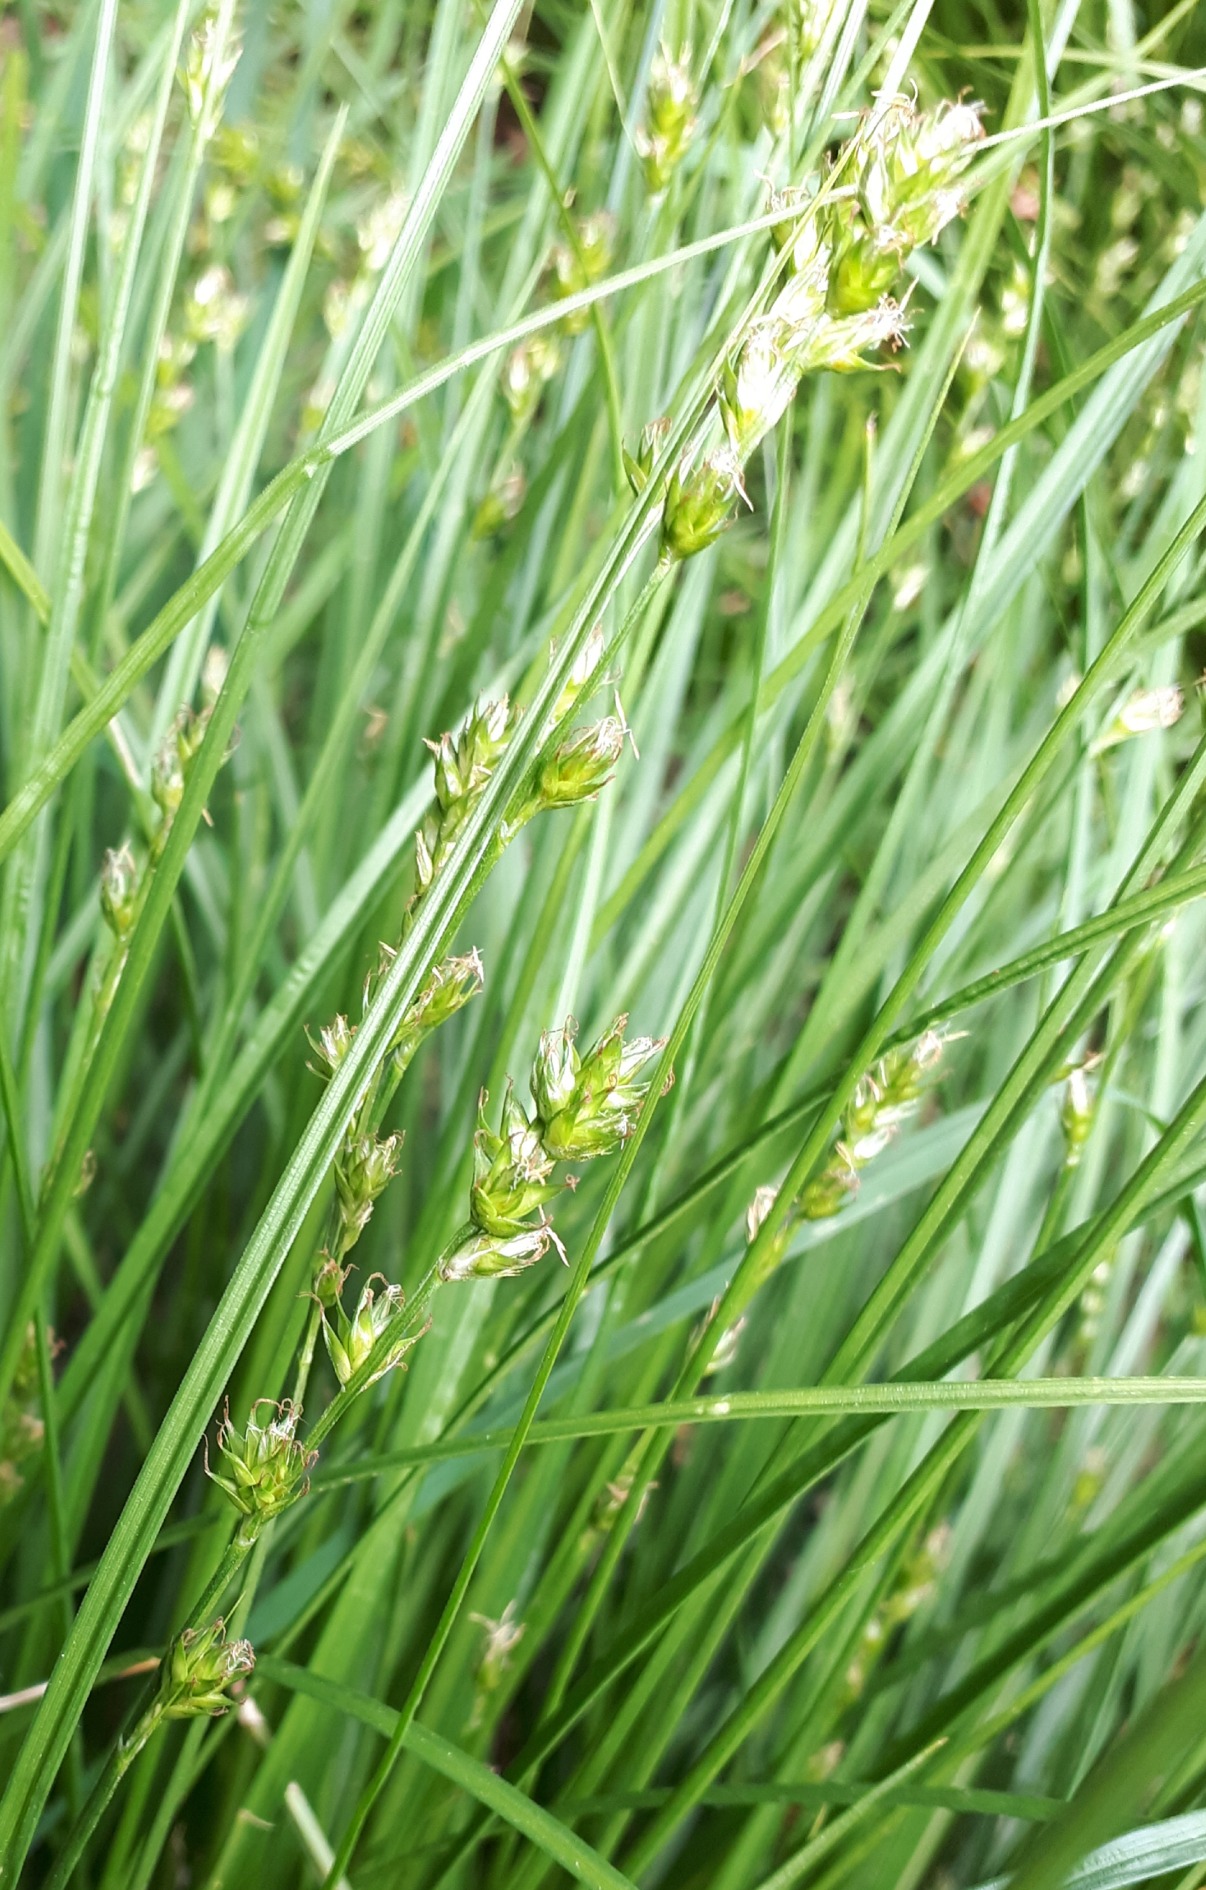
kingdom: Plantae
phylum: Tracheophyta
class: Liliopsida
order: Poales
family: Cyperaceae
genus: Carex
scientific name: Carex divulsa
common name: Mellembrudt star
